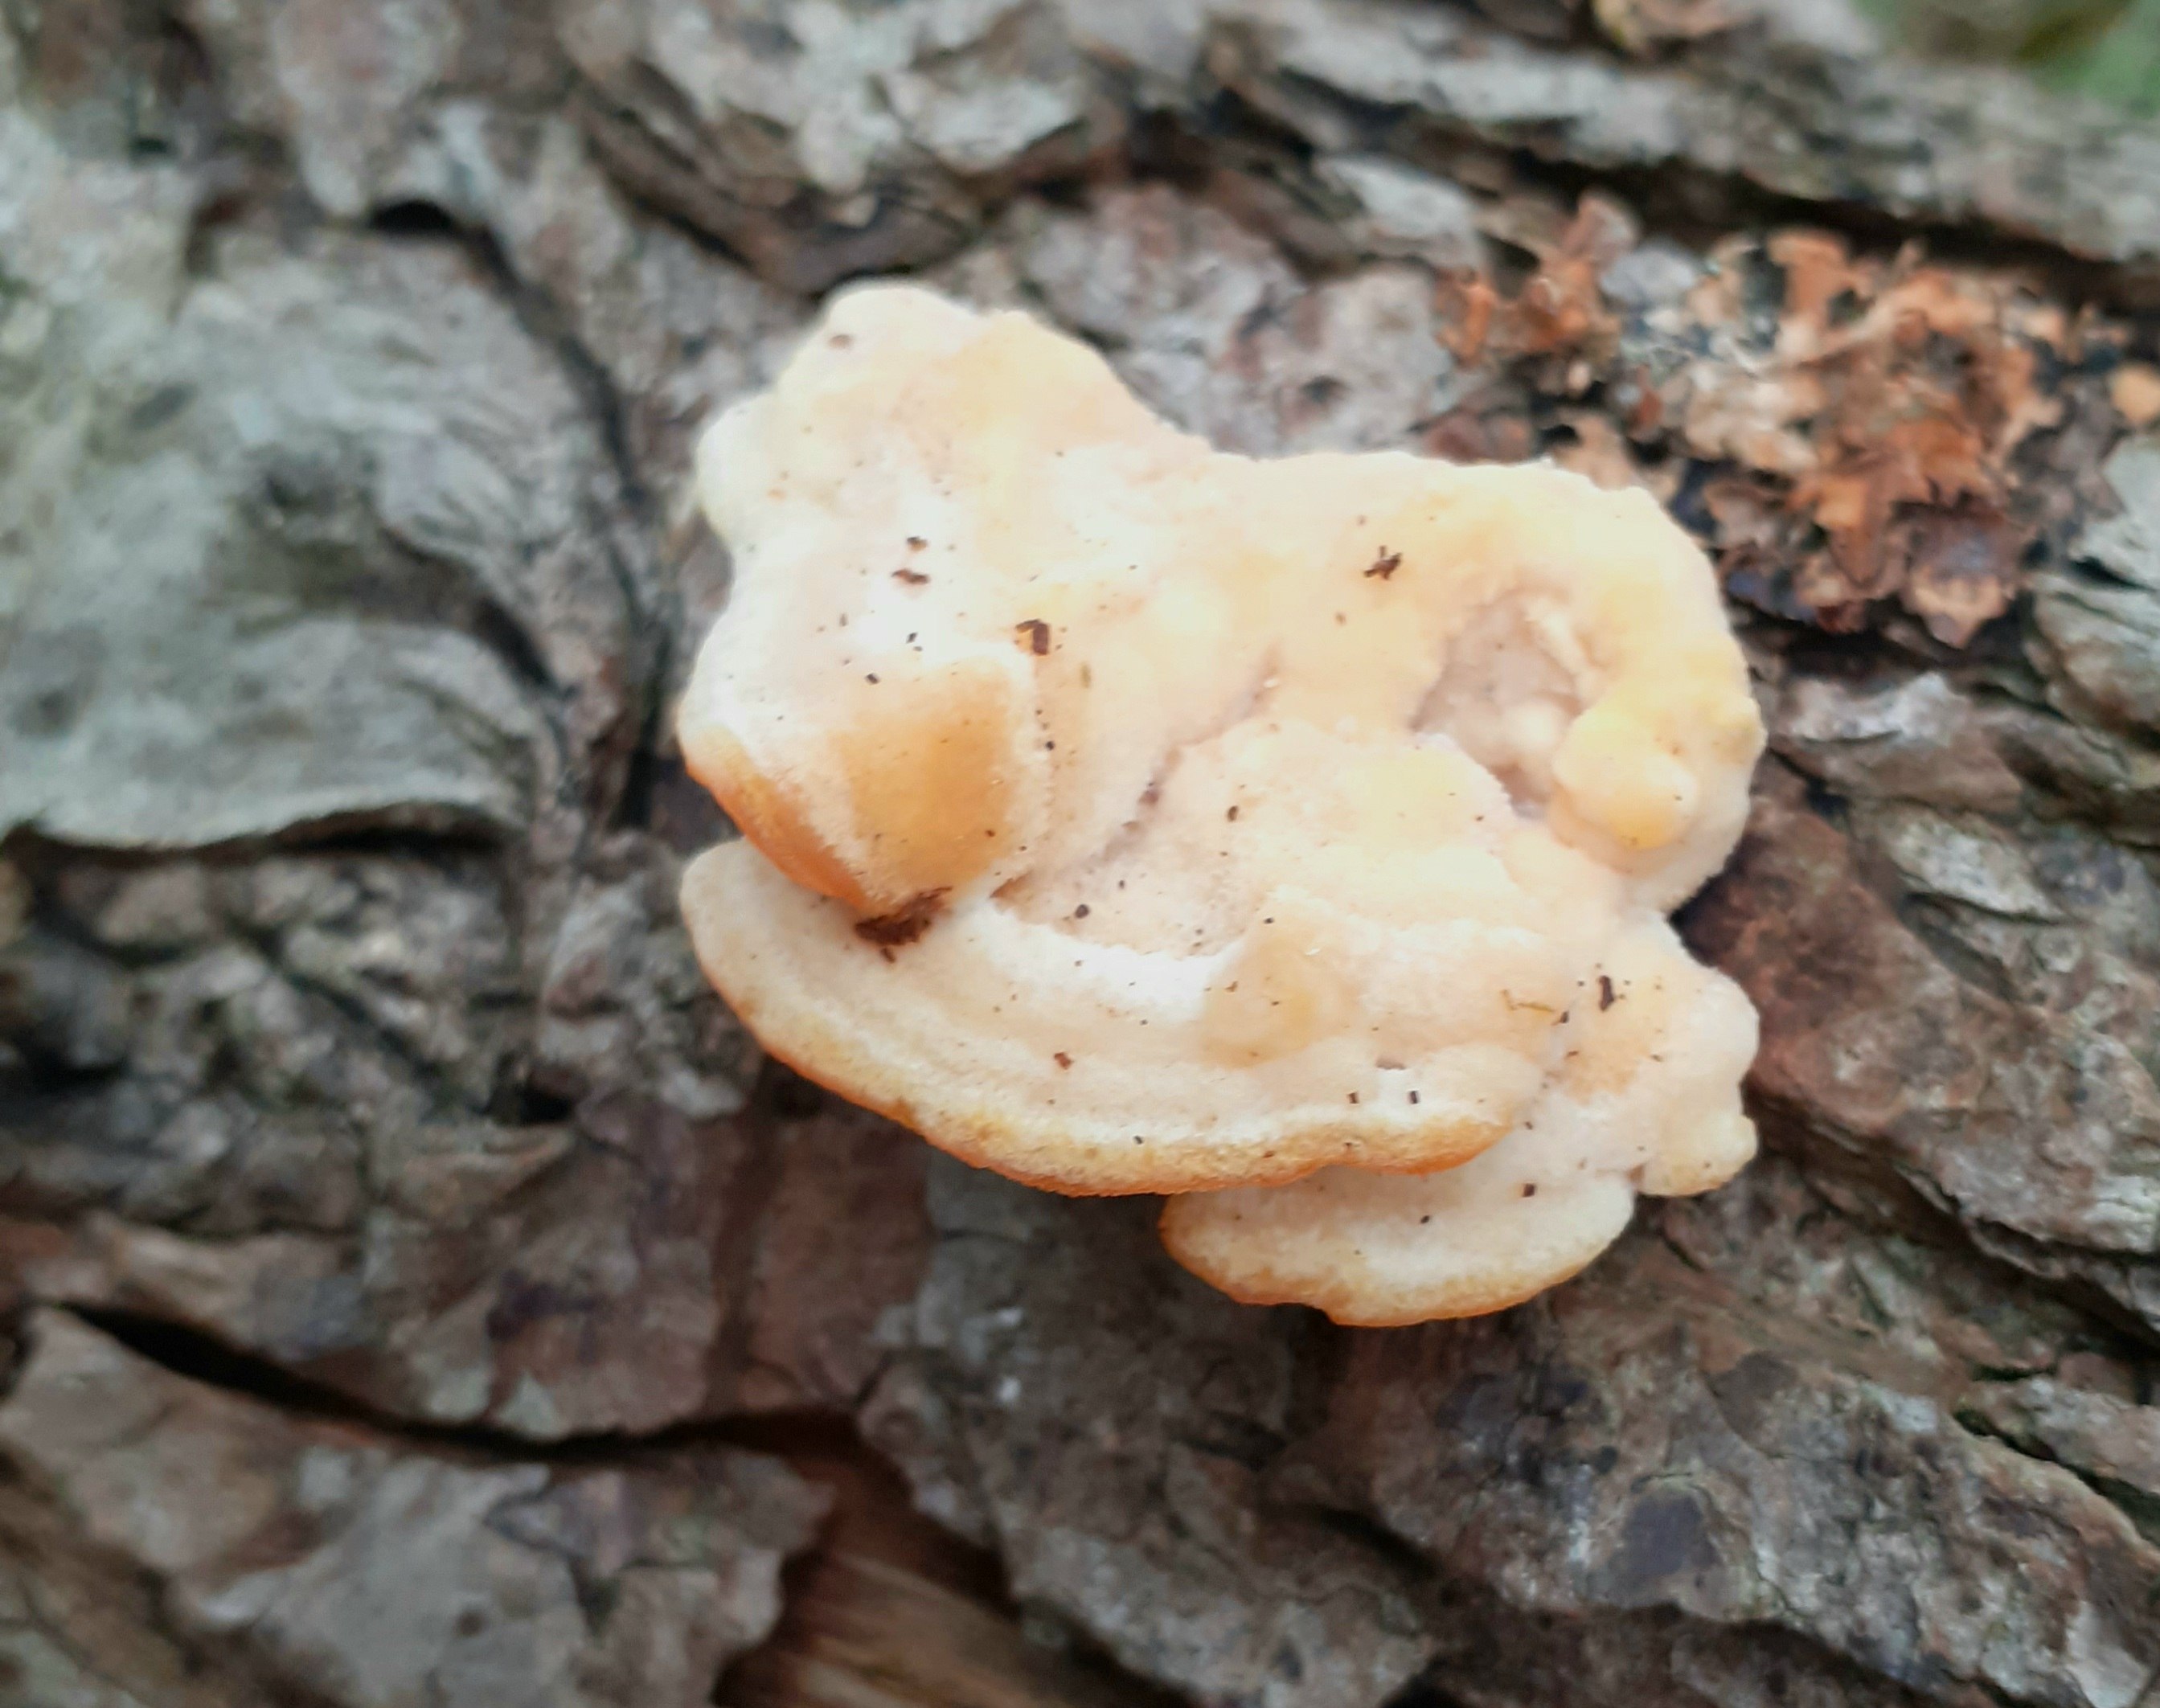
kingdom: Fungi
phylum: Basidiomycota
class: Agaricomycetes
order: Polyporales
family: Steccherinaceae
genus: Antrodiella
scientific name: Antrodiella serpula
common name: gulrandet elastikporesvamp
